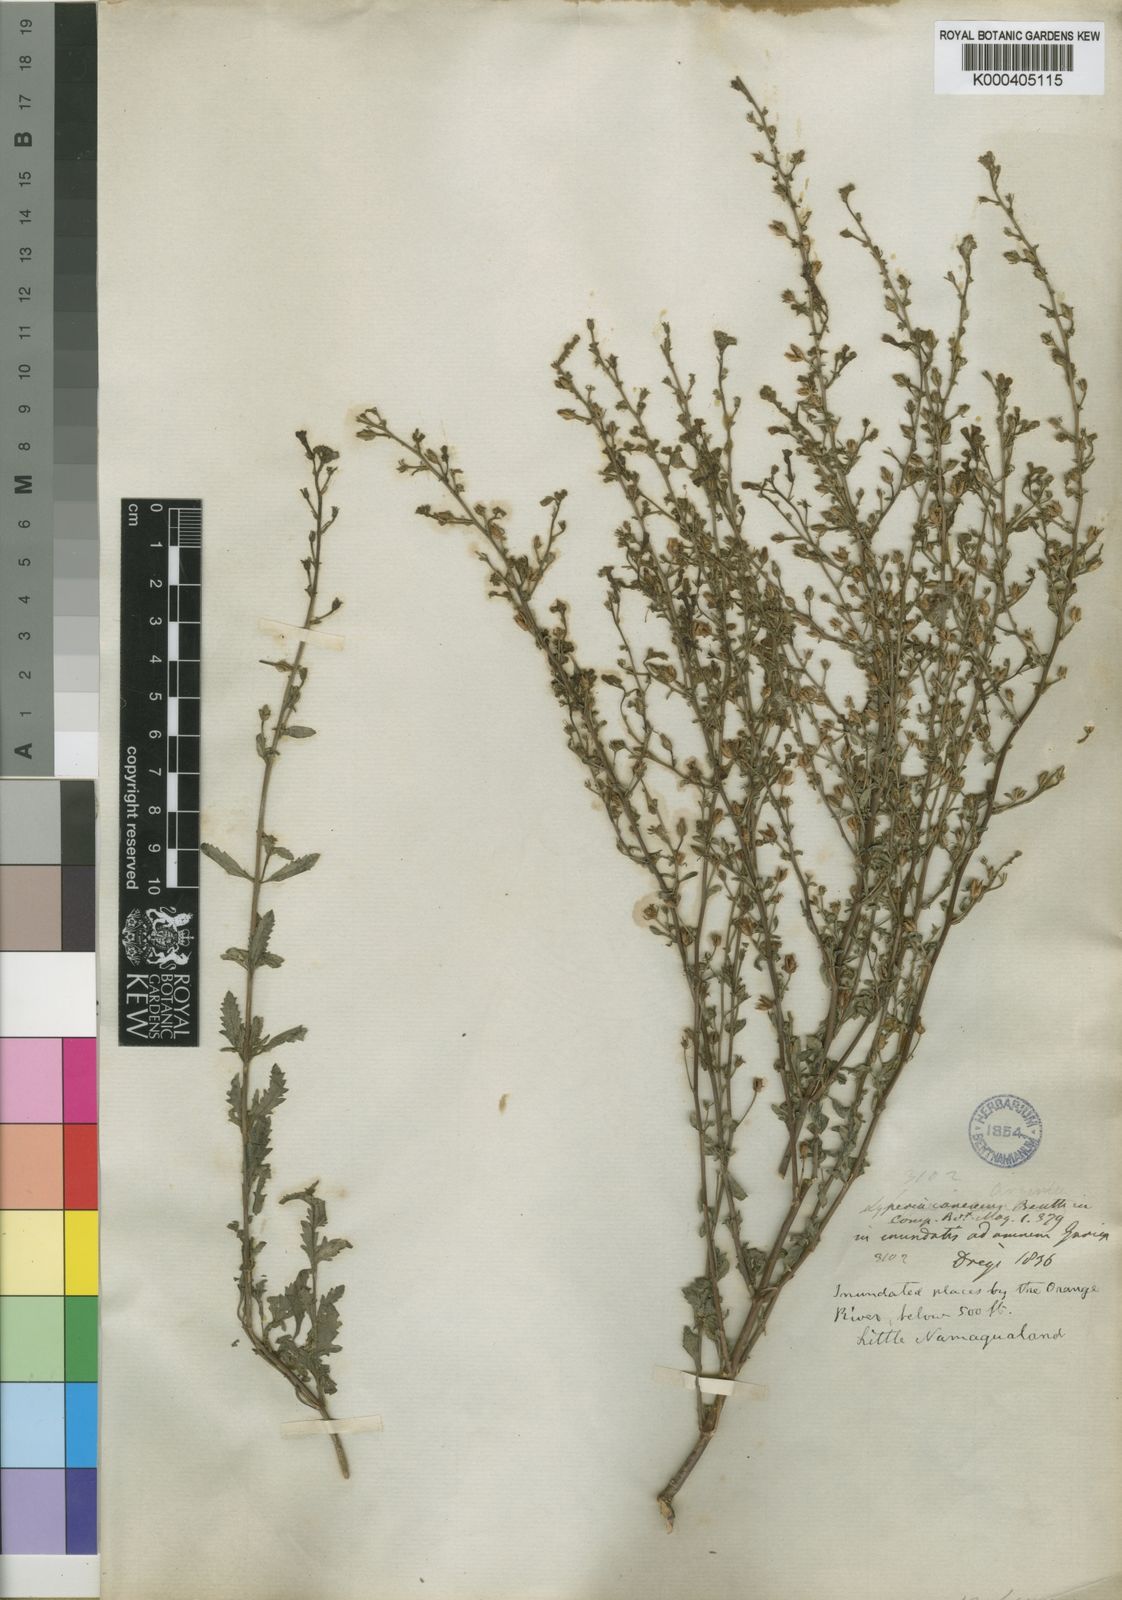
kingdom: Plantae
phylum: Tracheophyta
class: Magnoliopsida
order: Lamiales
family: Scrophulariaceae
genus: Jamesbrittenia
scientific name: Jamesbrittenia canescens
